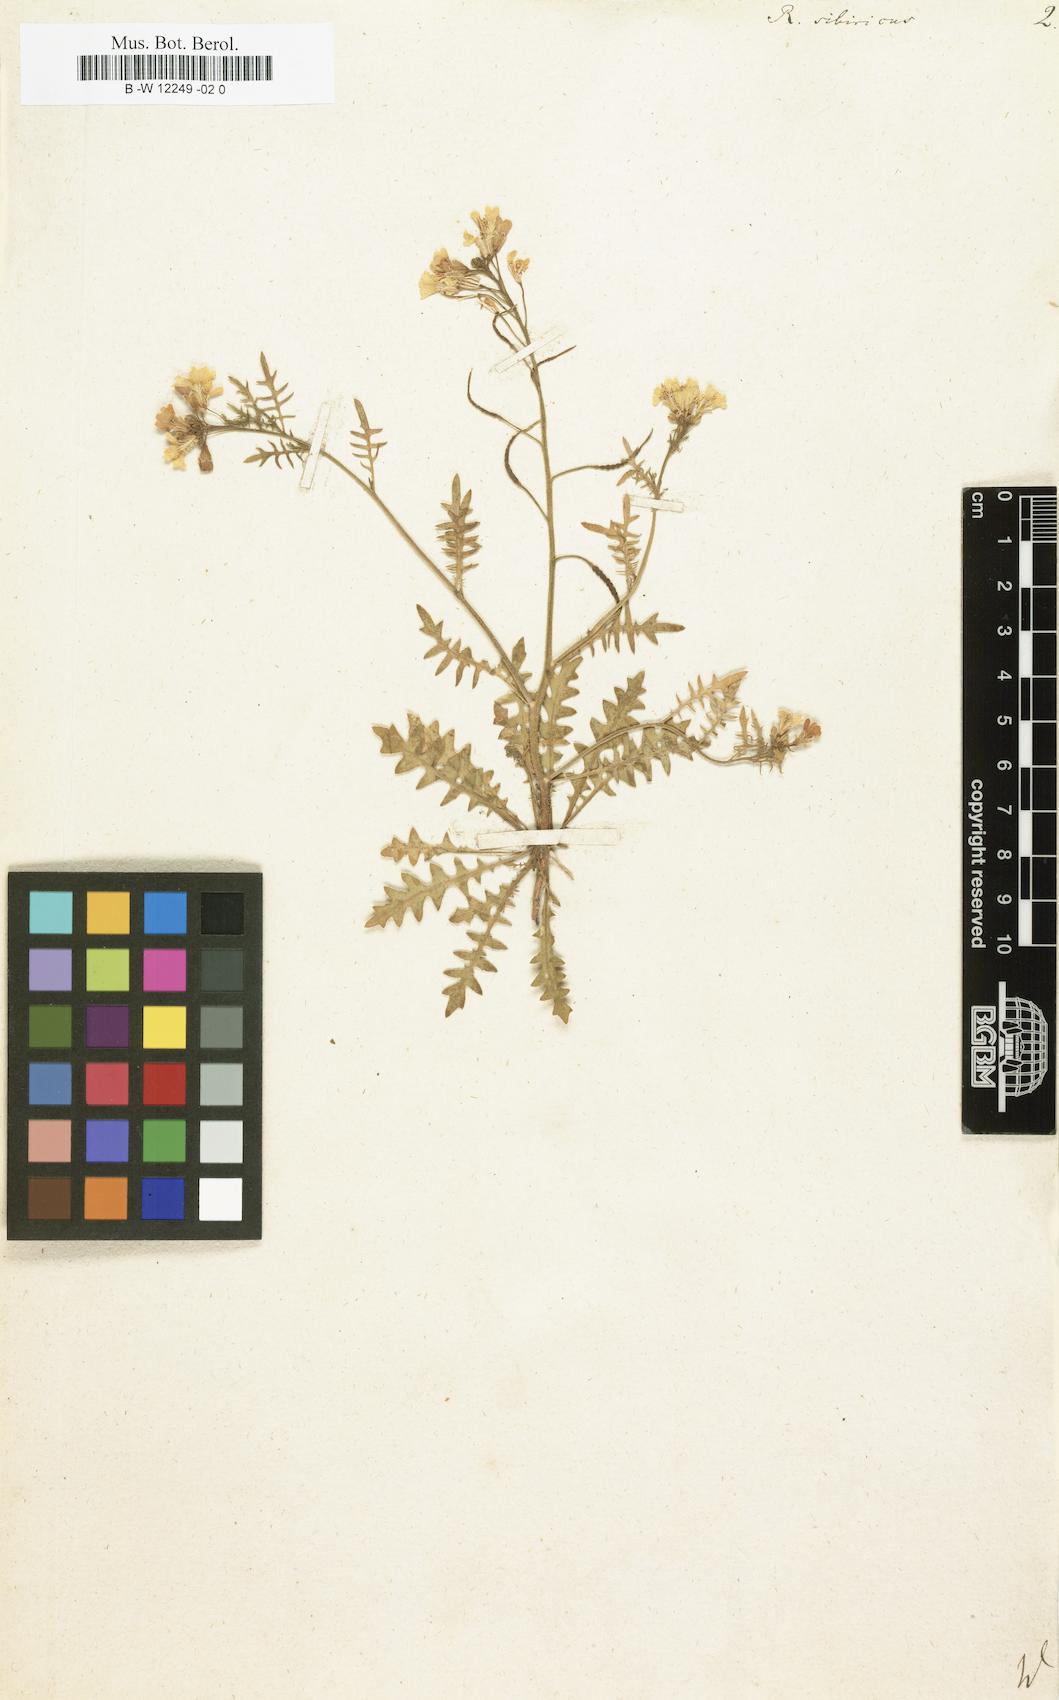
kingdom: Plantae
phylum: Tracheophyta
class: Magnoliopsida
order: Brassicales
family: Brassicaceae
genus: Chorispora
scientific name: Chorispora sibirica
